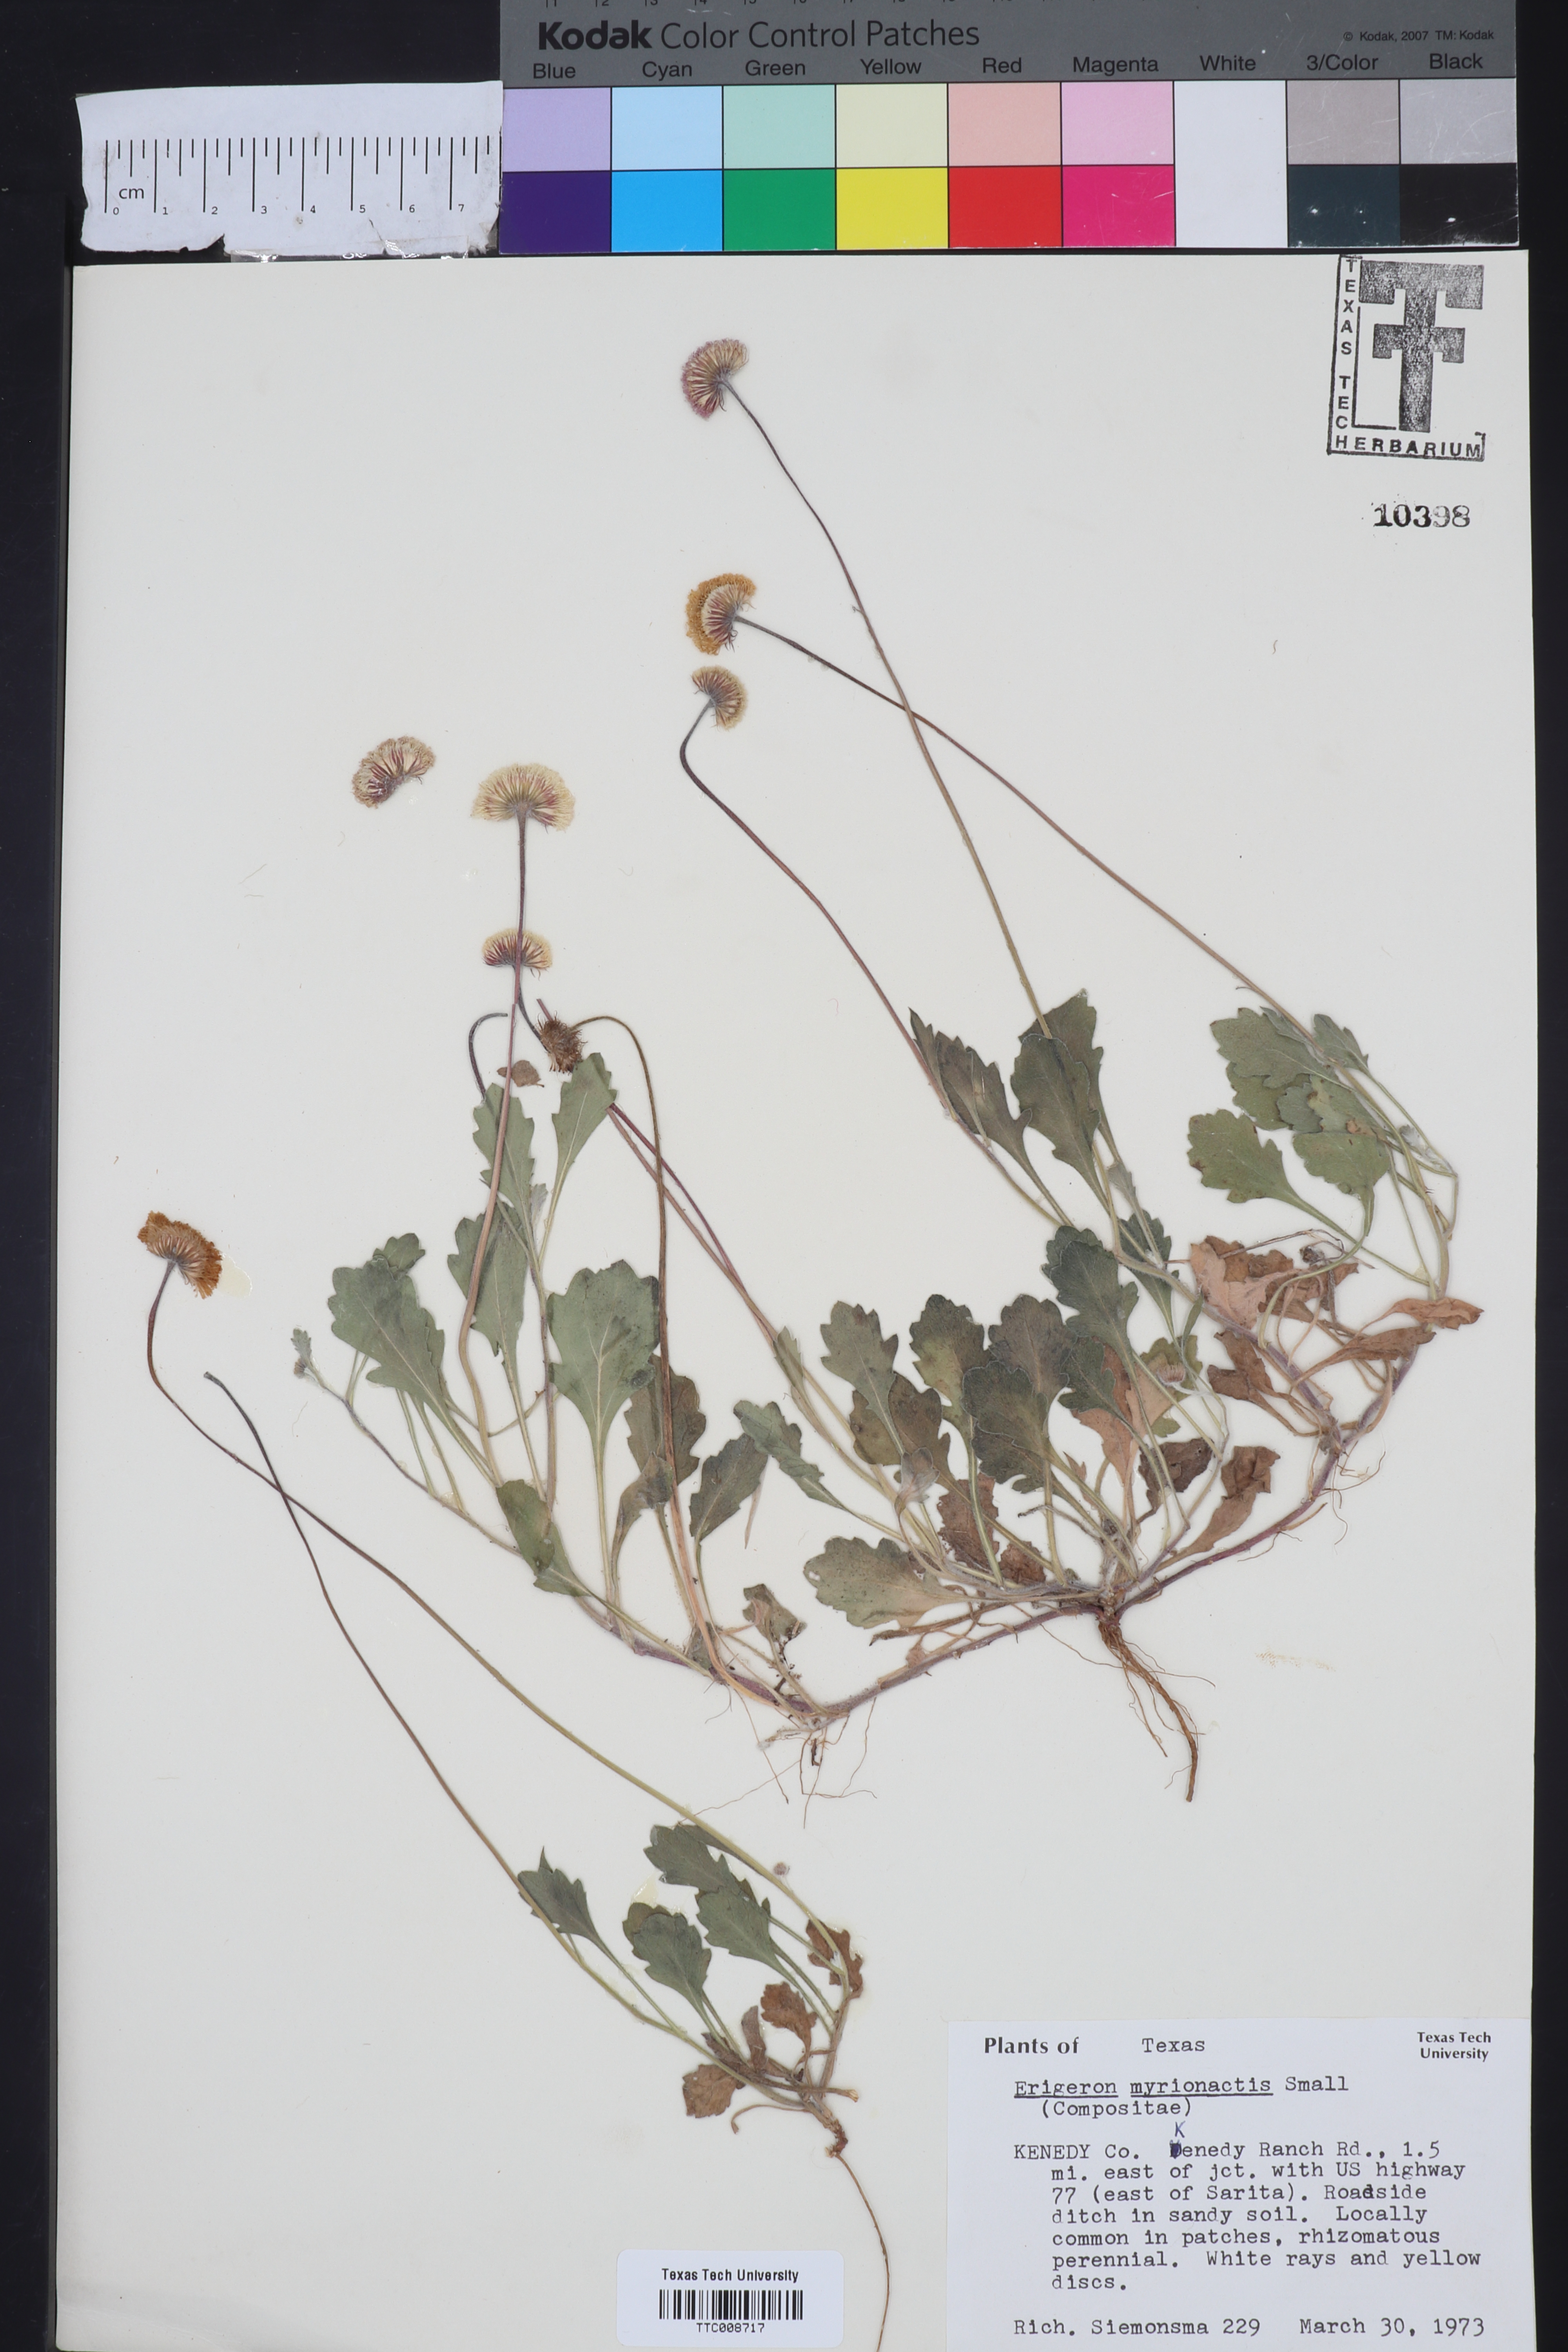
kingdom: Plantae
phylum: Tracheophyta
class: Magnoliopsida
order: Asterales
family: Asteraceae
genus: Erigeron
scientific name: Erigeron procumbens
